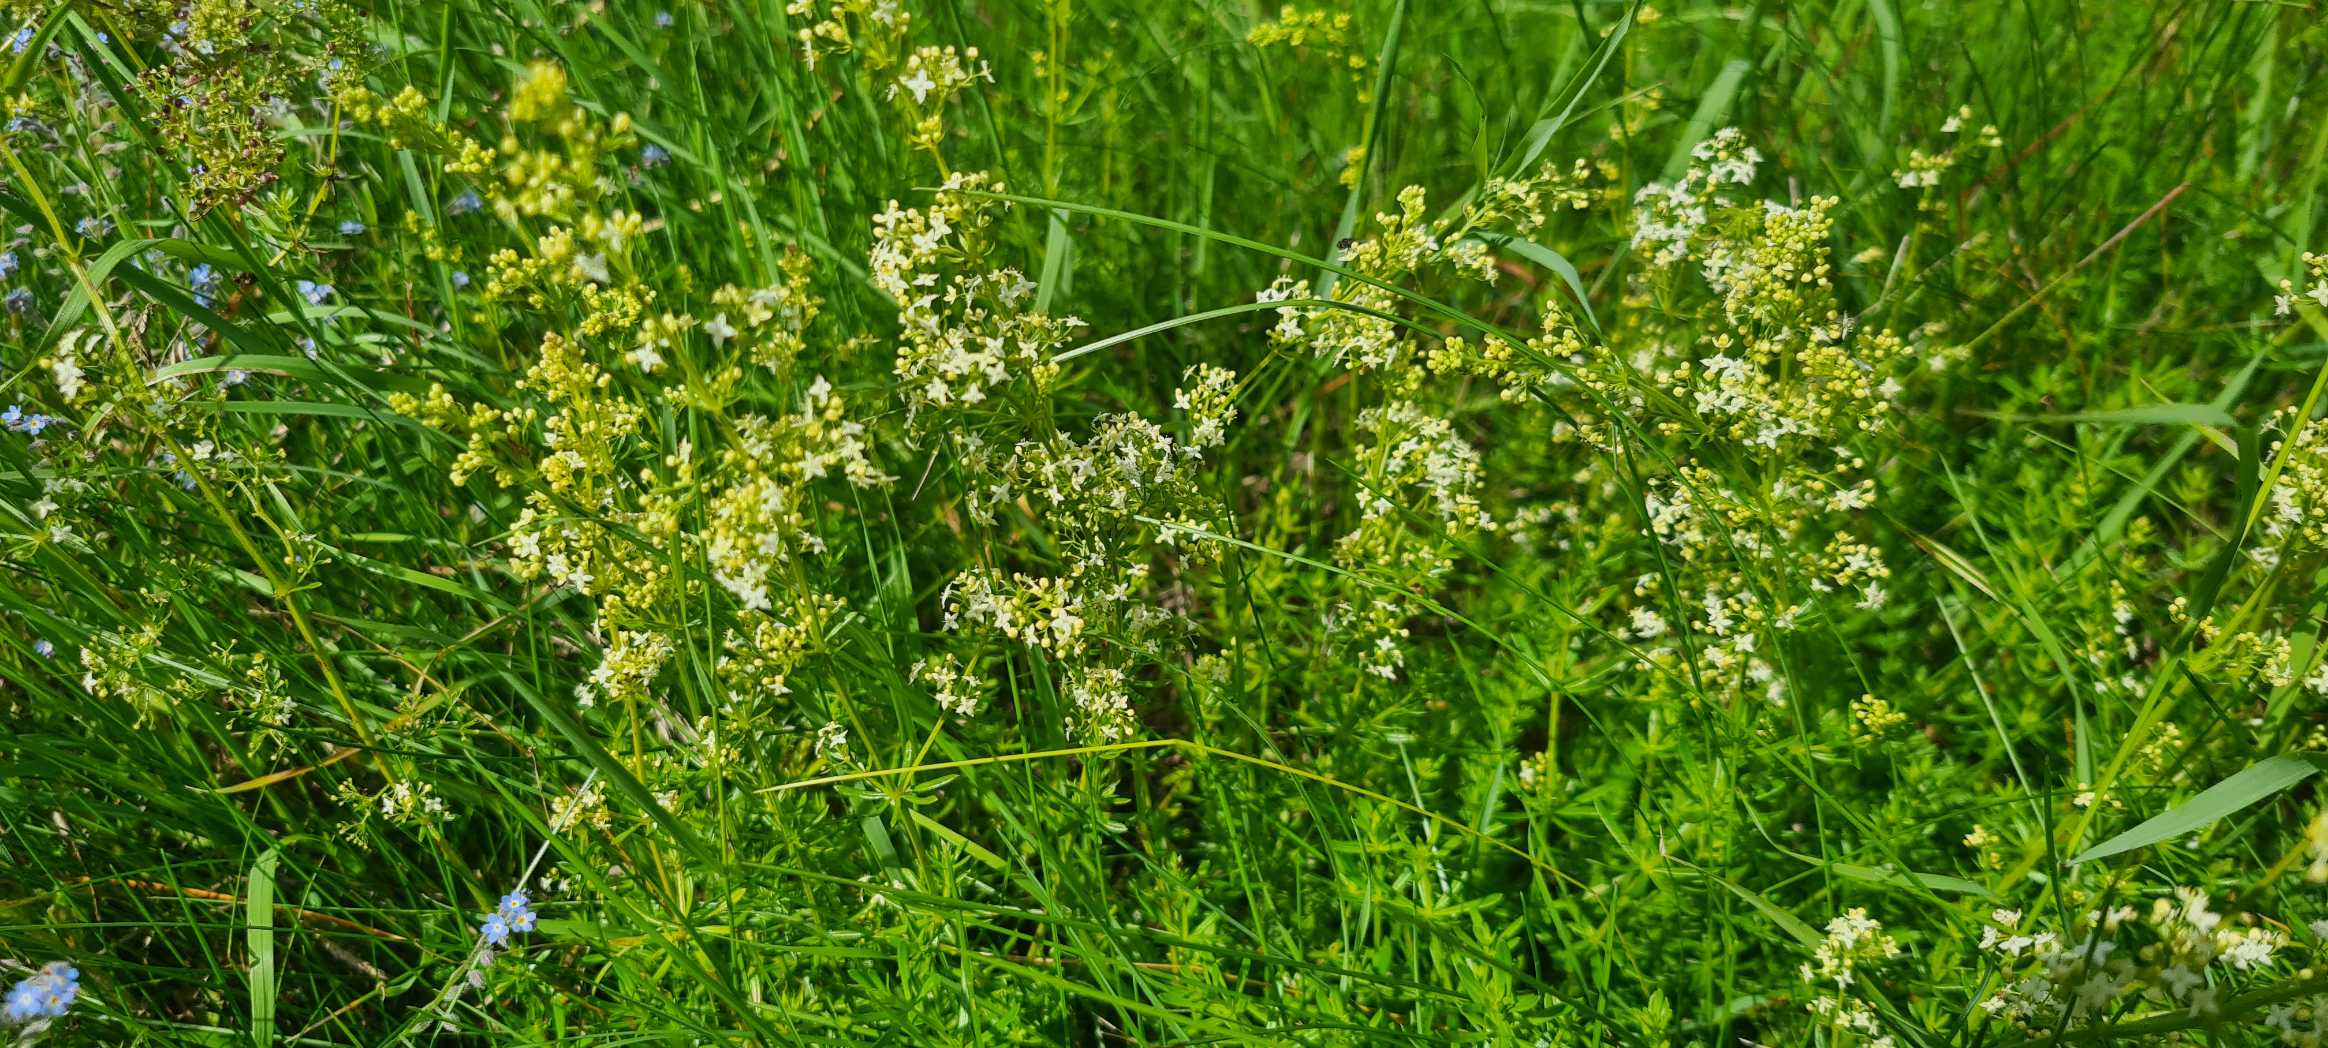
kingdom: Plantae
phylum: Tracheophyta
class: Magnoliopsida
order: Gentianales
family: Rubiaceae
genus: Galium
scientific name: Galium mollugo
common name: Hvid snerre
